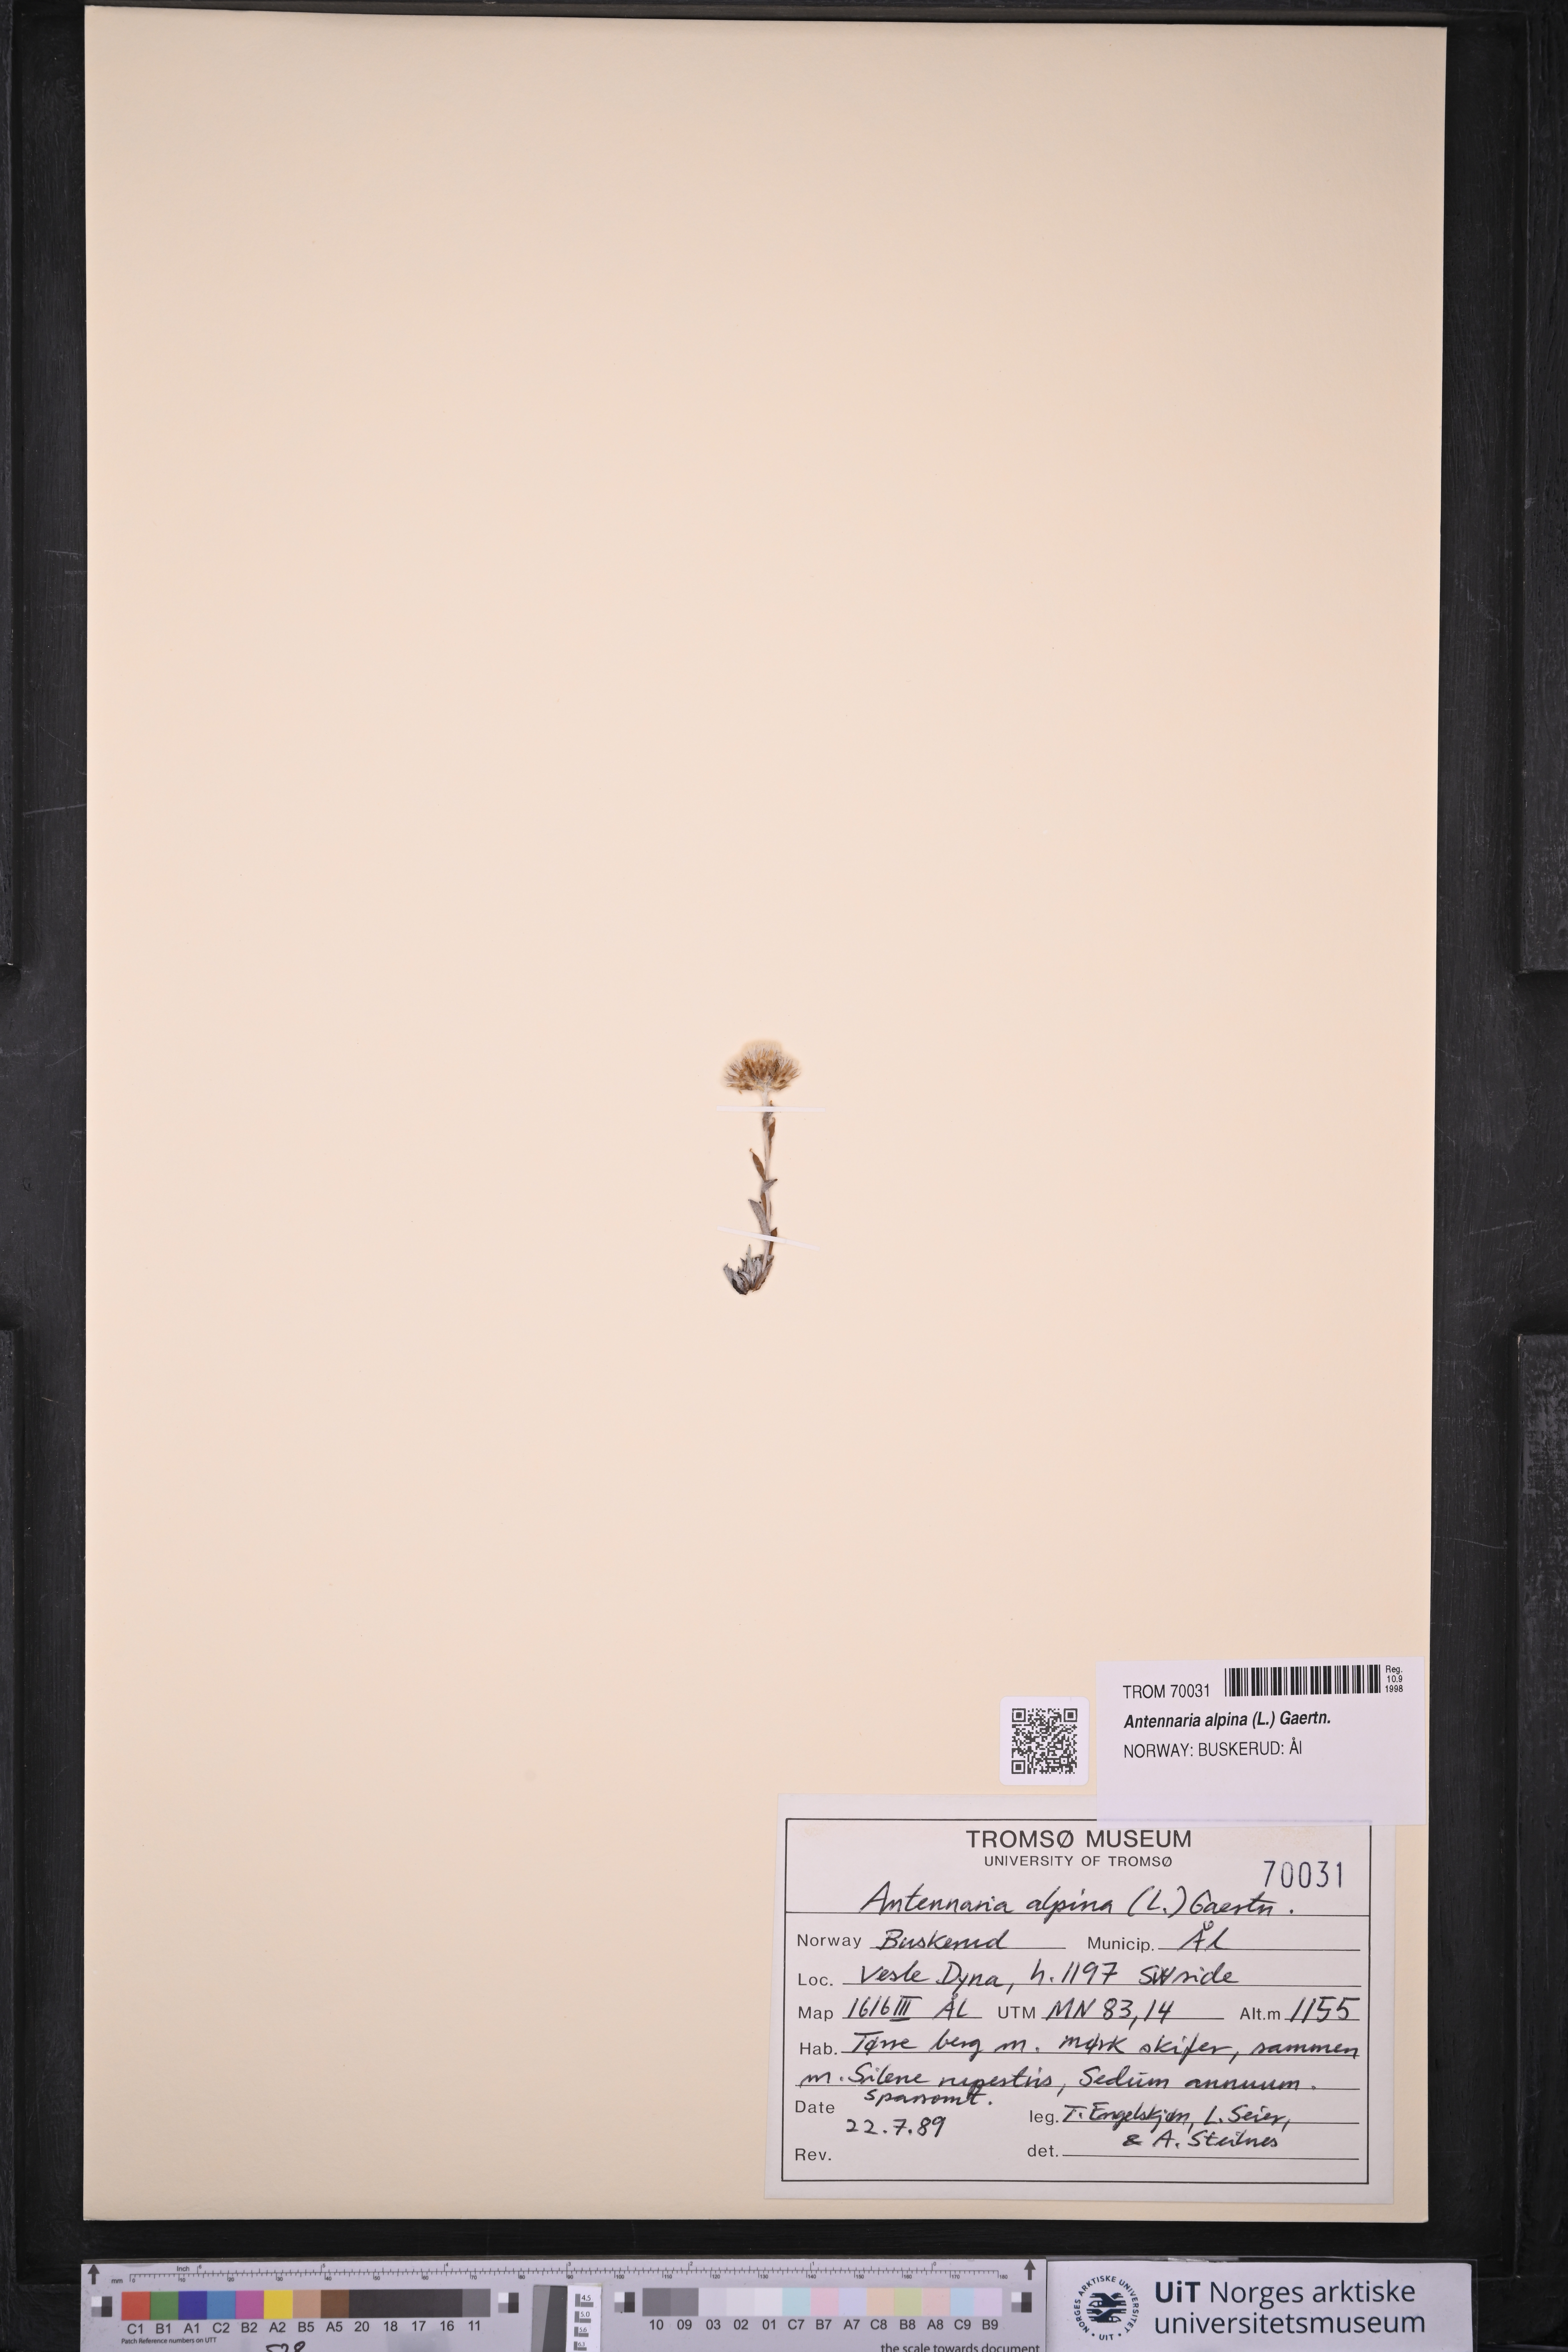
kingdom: Plantae
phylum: Tracheophyta
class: Magnoliopsida
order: Asterales
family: Asteraceae
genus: Antennaria
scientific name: Antennaria alpina
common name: Alpine pussytoes
